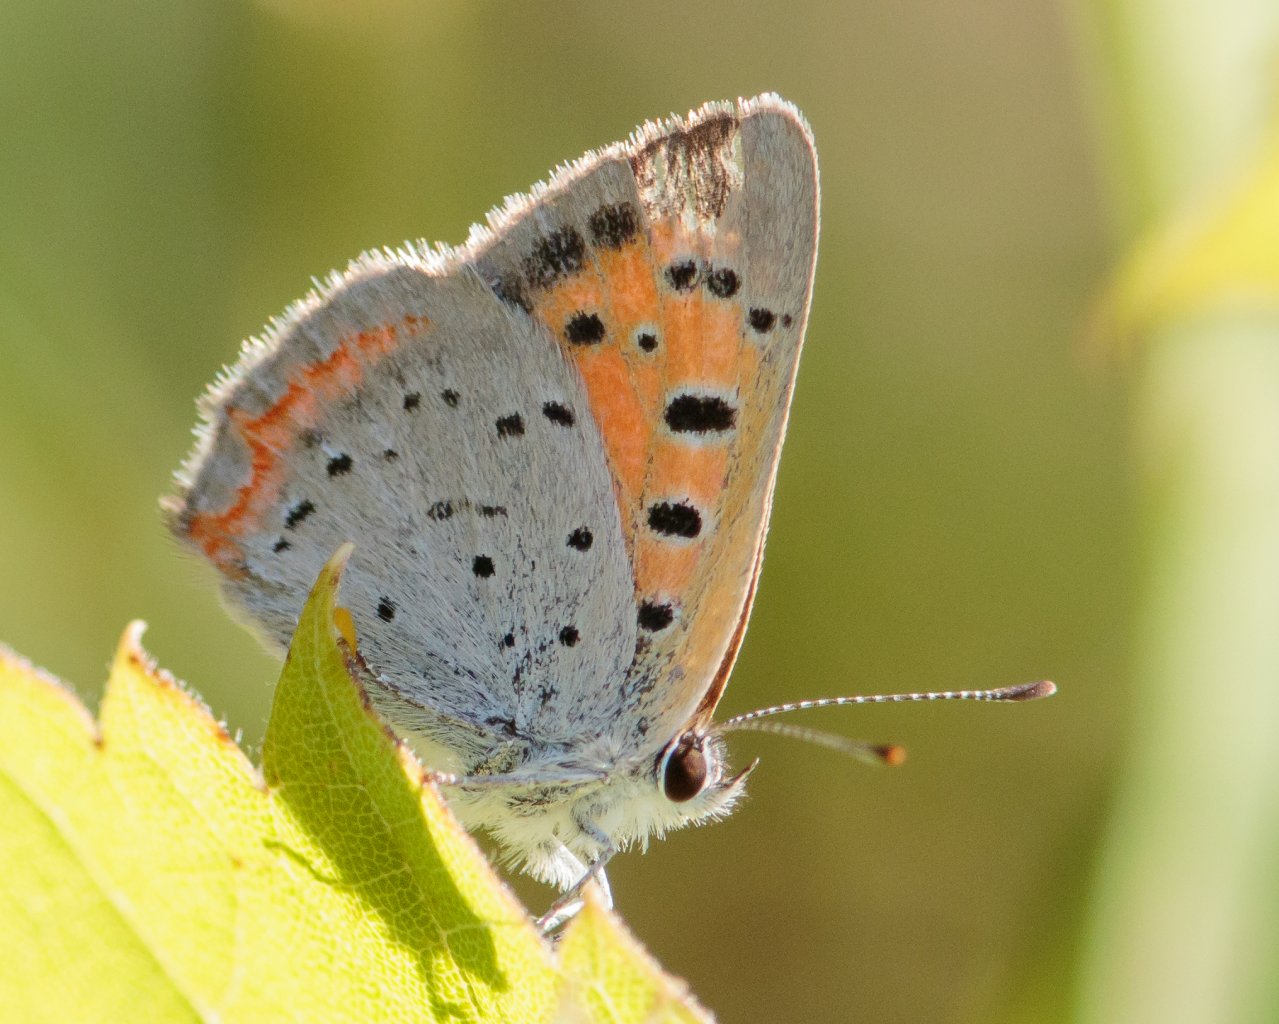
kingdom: Animalia
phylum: Arthropoda
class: Insecta
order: Lepidoptera
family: Lycaenidae
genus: Lycaena
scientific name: Lycaena phlaeas
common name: American Copper
